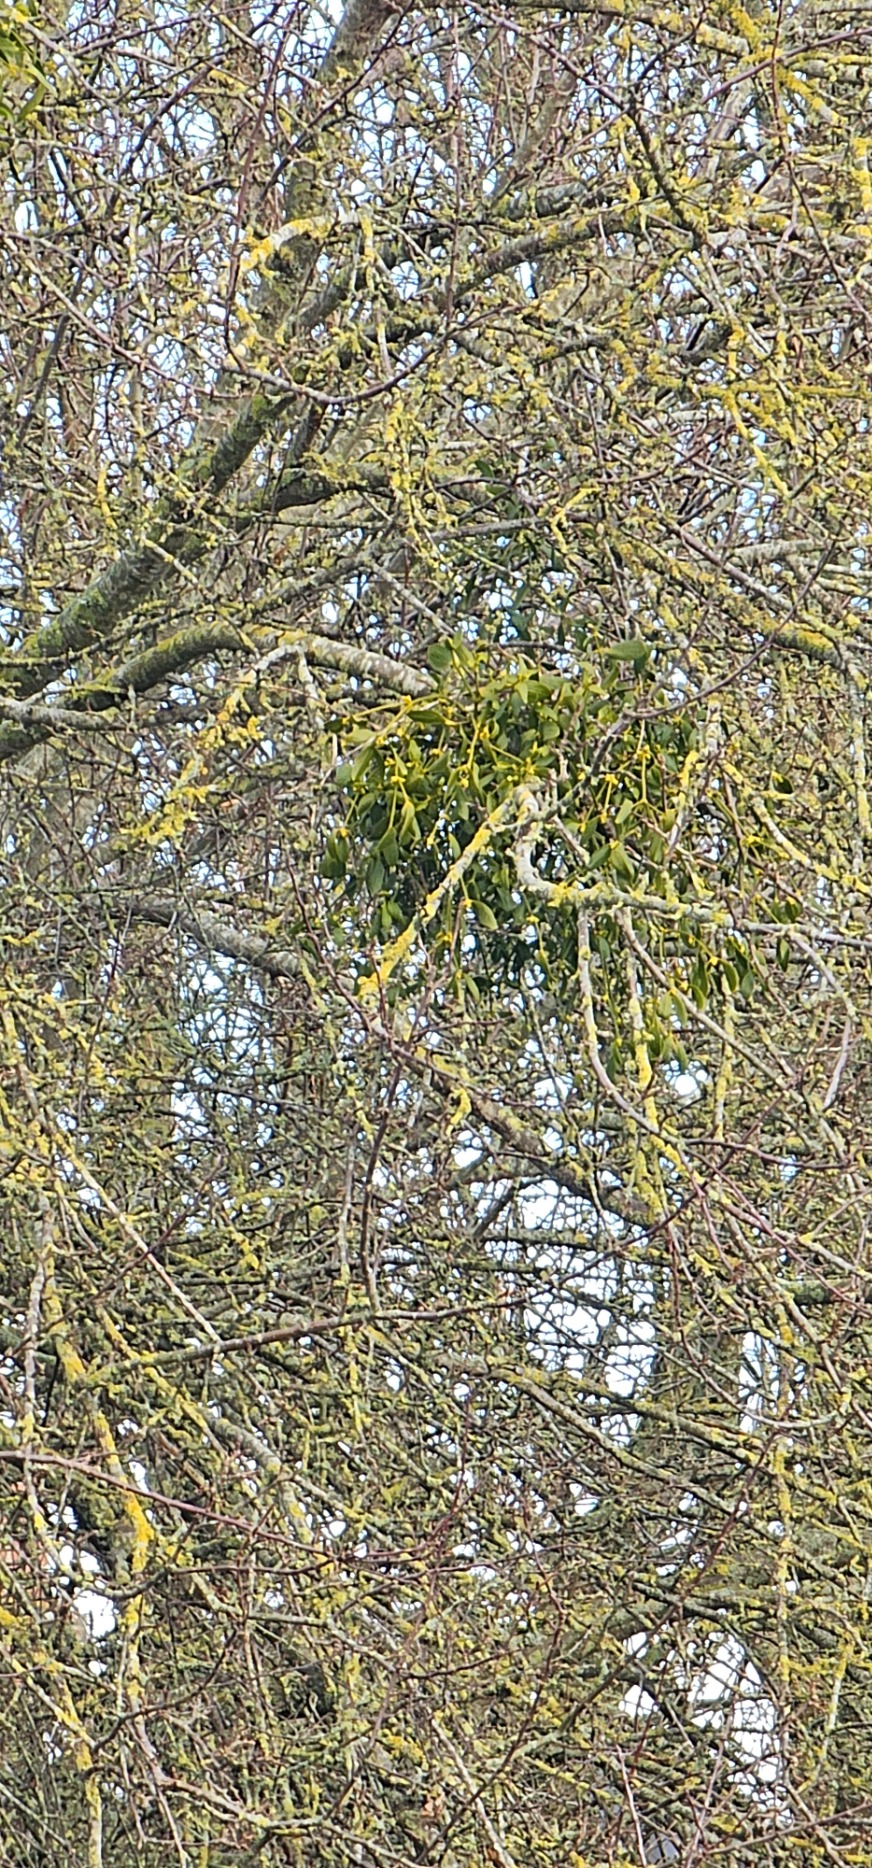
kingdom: Plantae
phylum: Tracheophyta
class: Magnoliopsida
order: Santalales
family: Viscaceae
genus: Viscum
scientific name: Viscum album
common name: Mistelten
